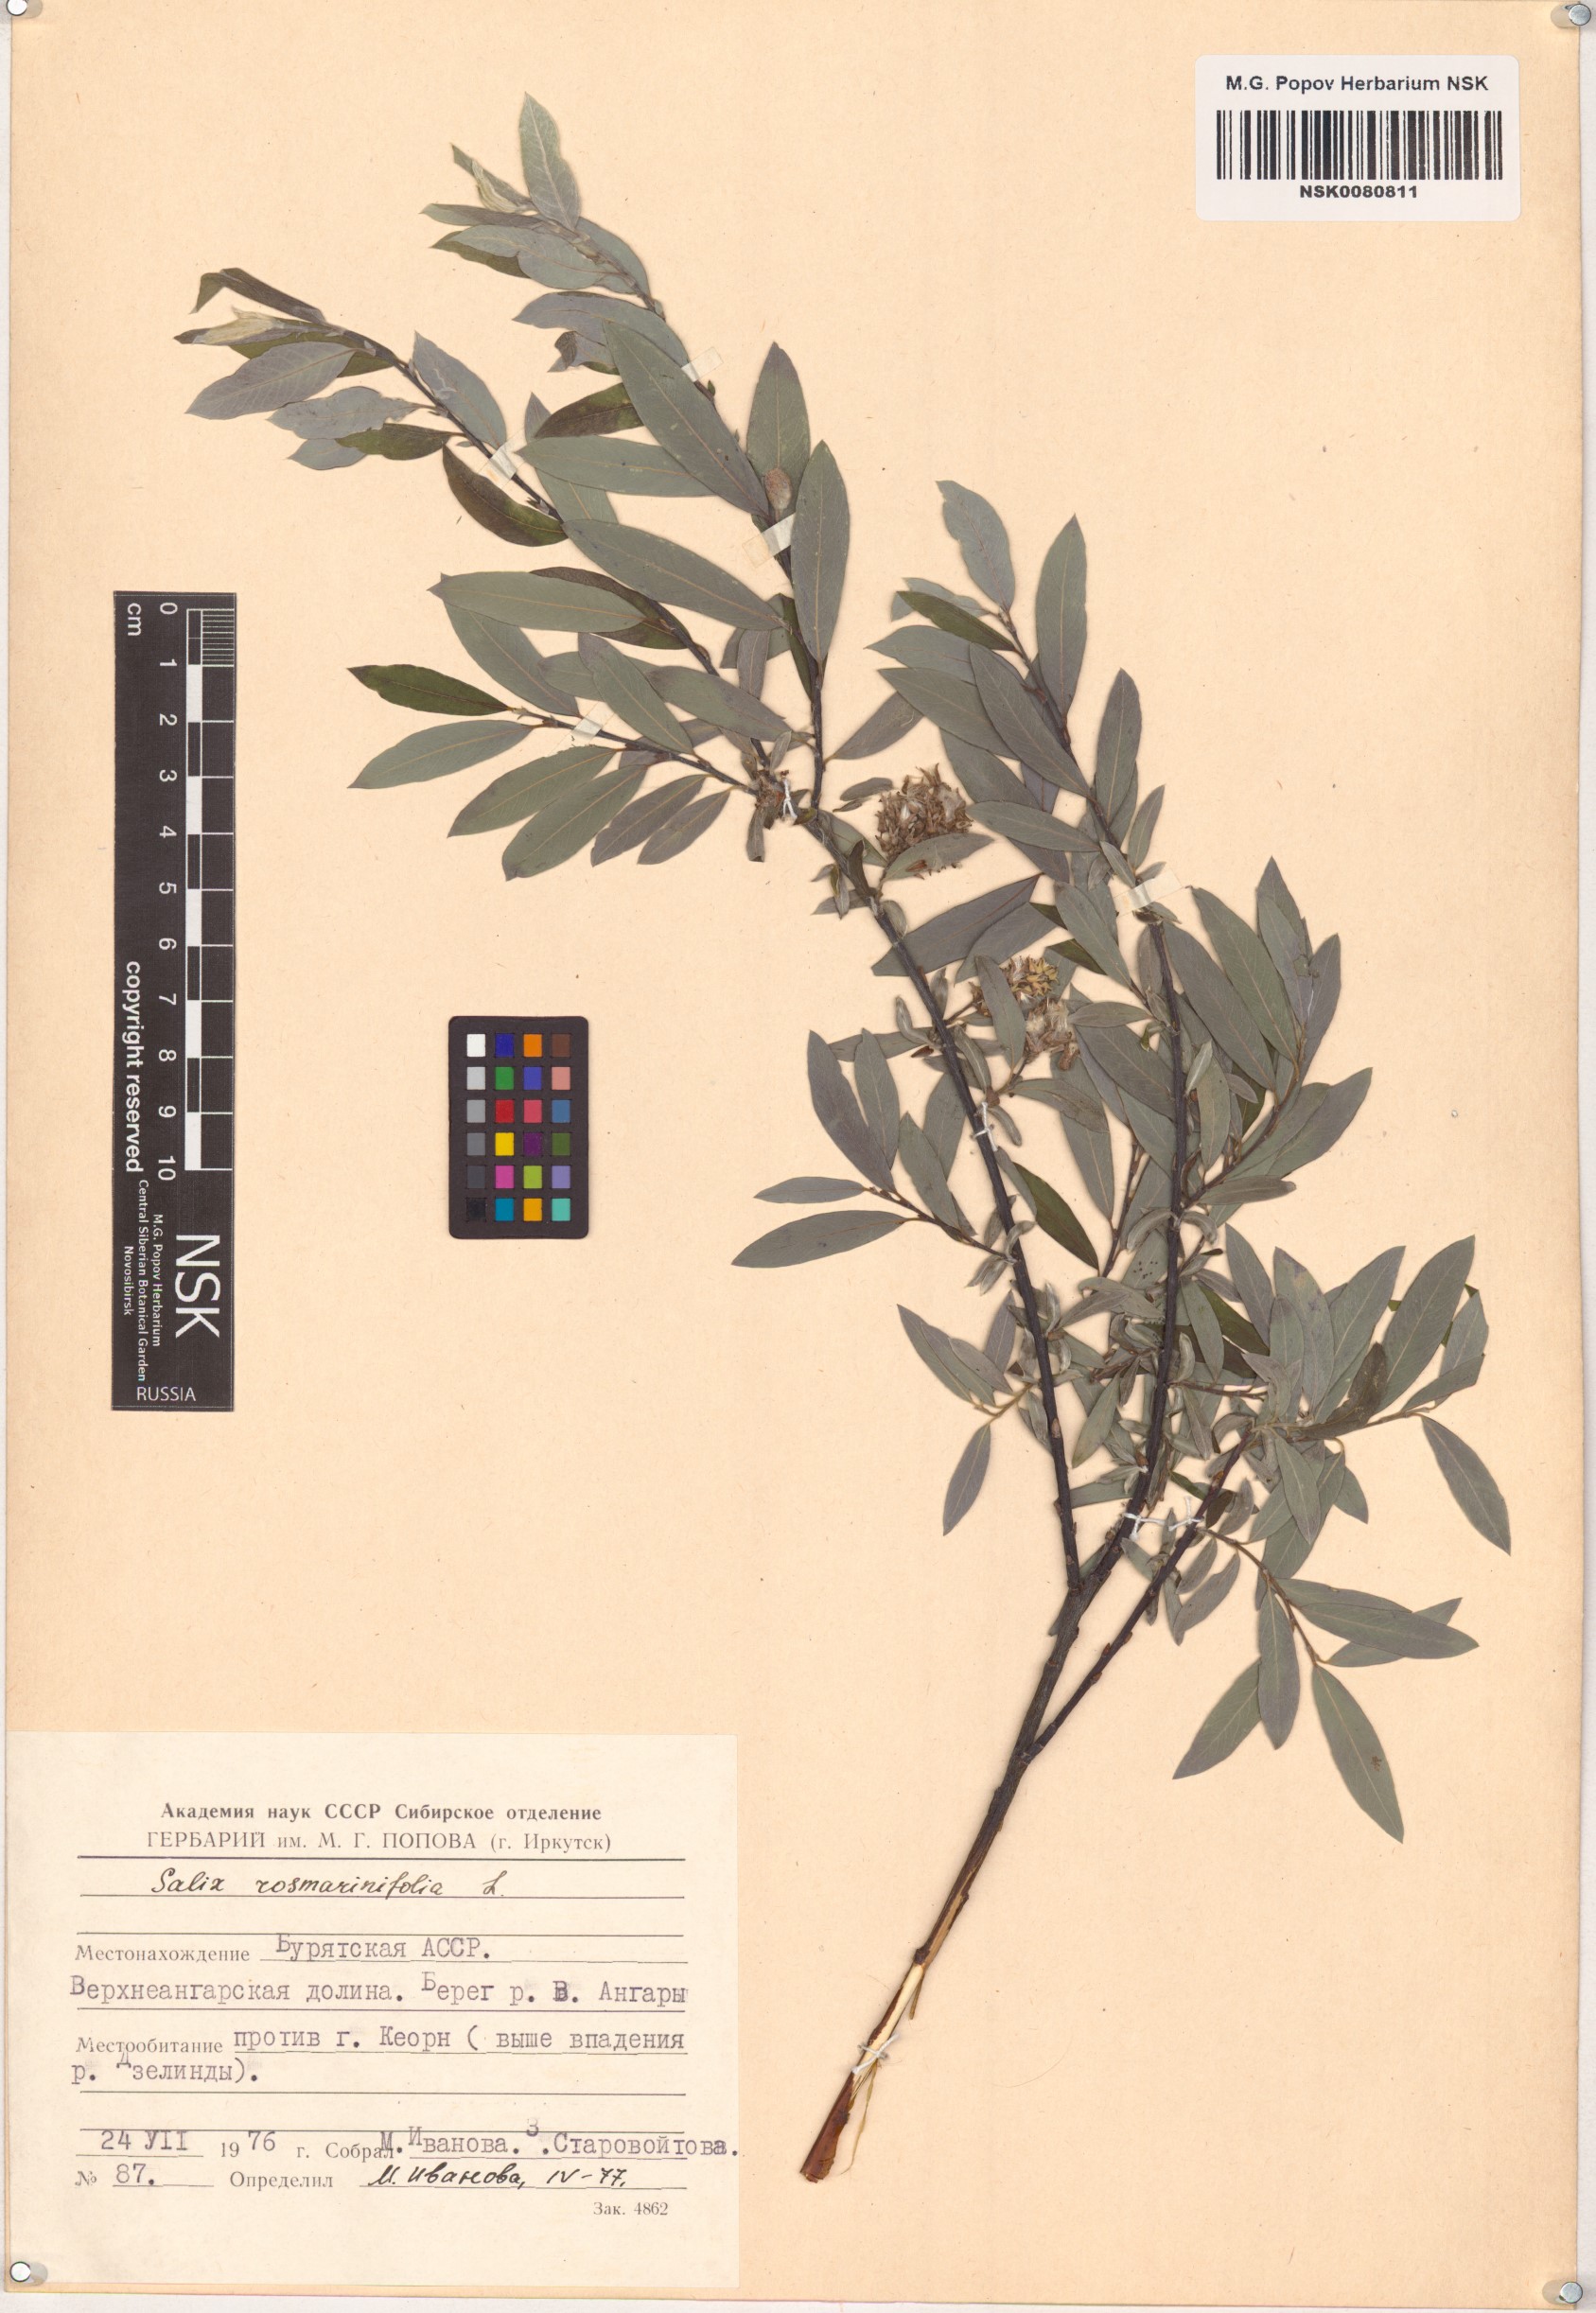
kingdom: Plantae
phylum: Tracheophyta
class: Magnoliopsida
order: Malpighiales
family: Salicaceae
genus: Salix
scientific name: Salix rosmarinifolia
